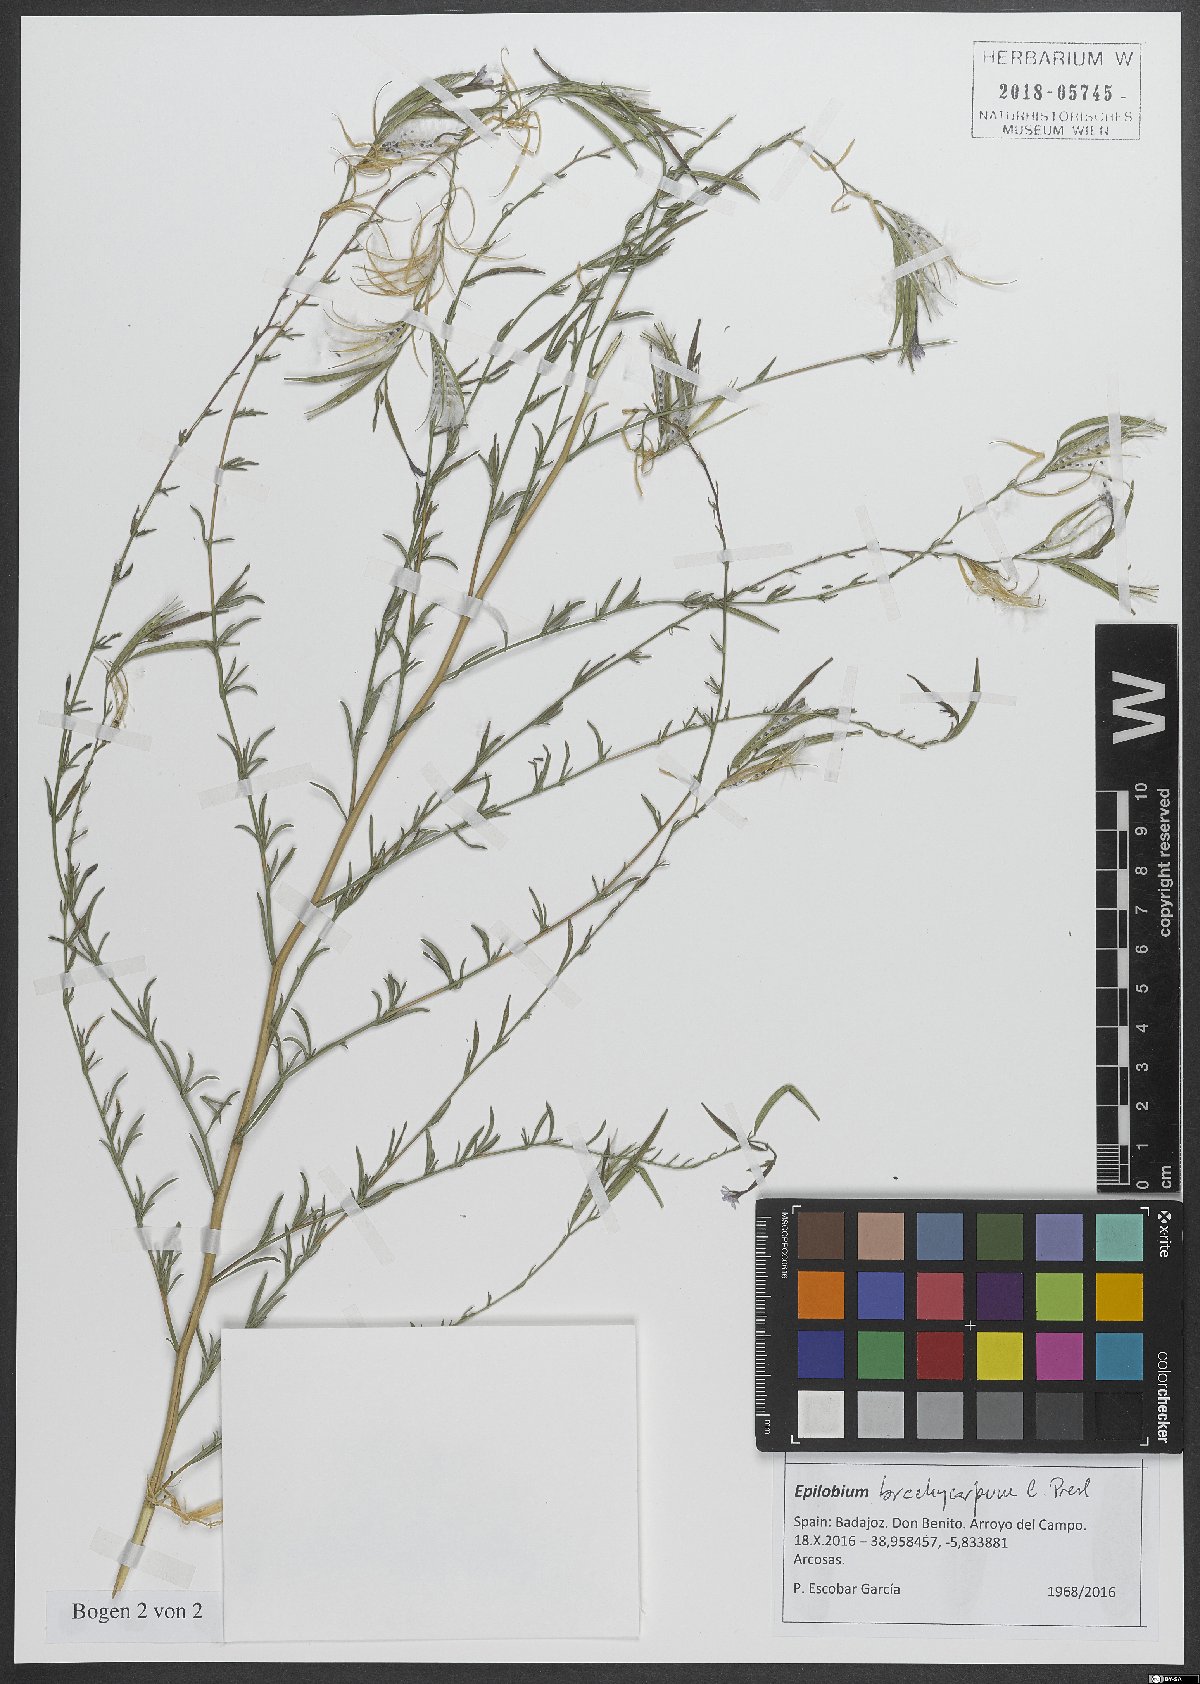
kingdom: Plantae
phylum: Tracheophyta
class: Magnoliopsida
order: Myrtales
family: Onagraceae
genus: Epilobium
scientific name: Epilobium brachycarpum
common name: Annual willowherb
